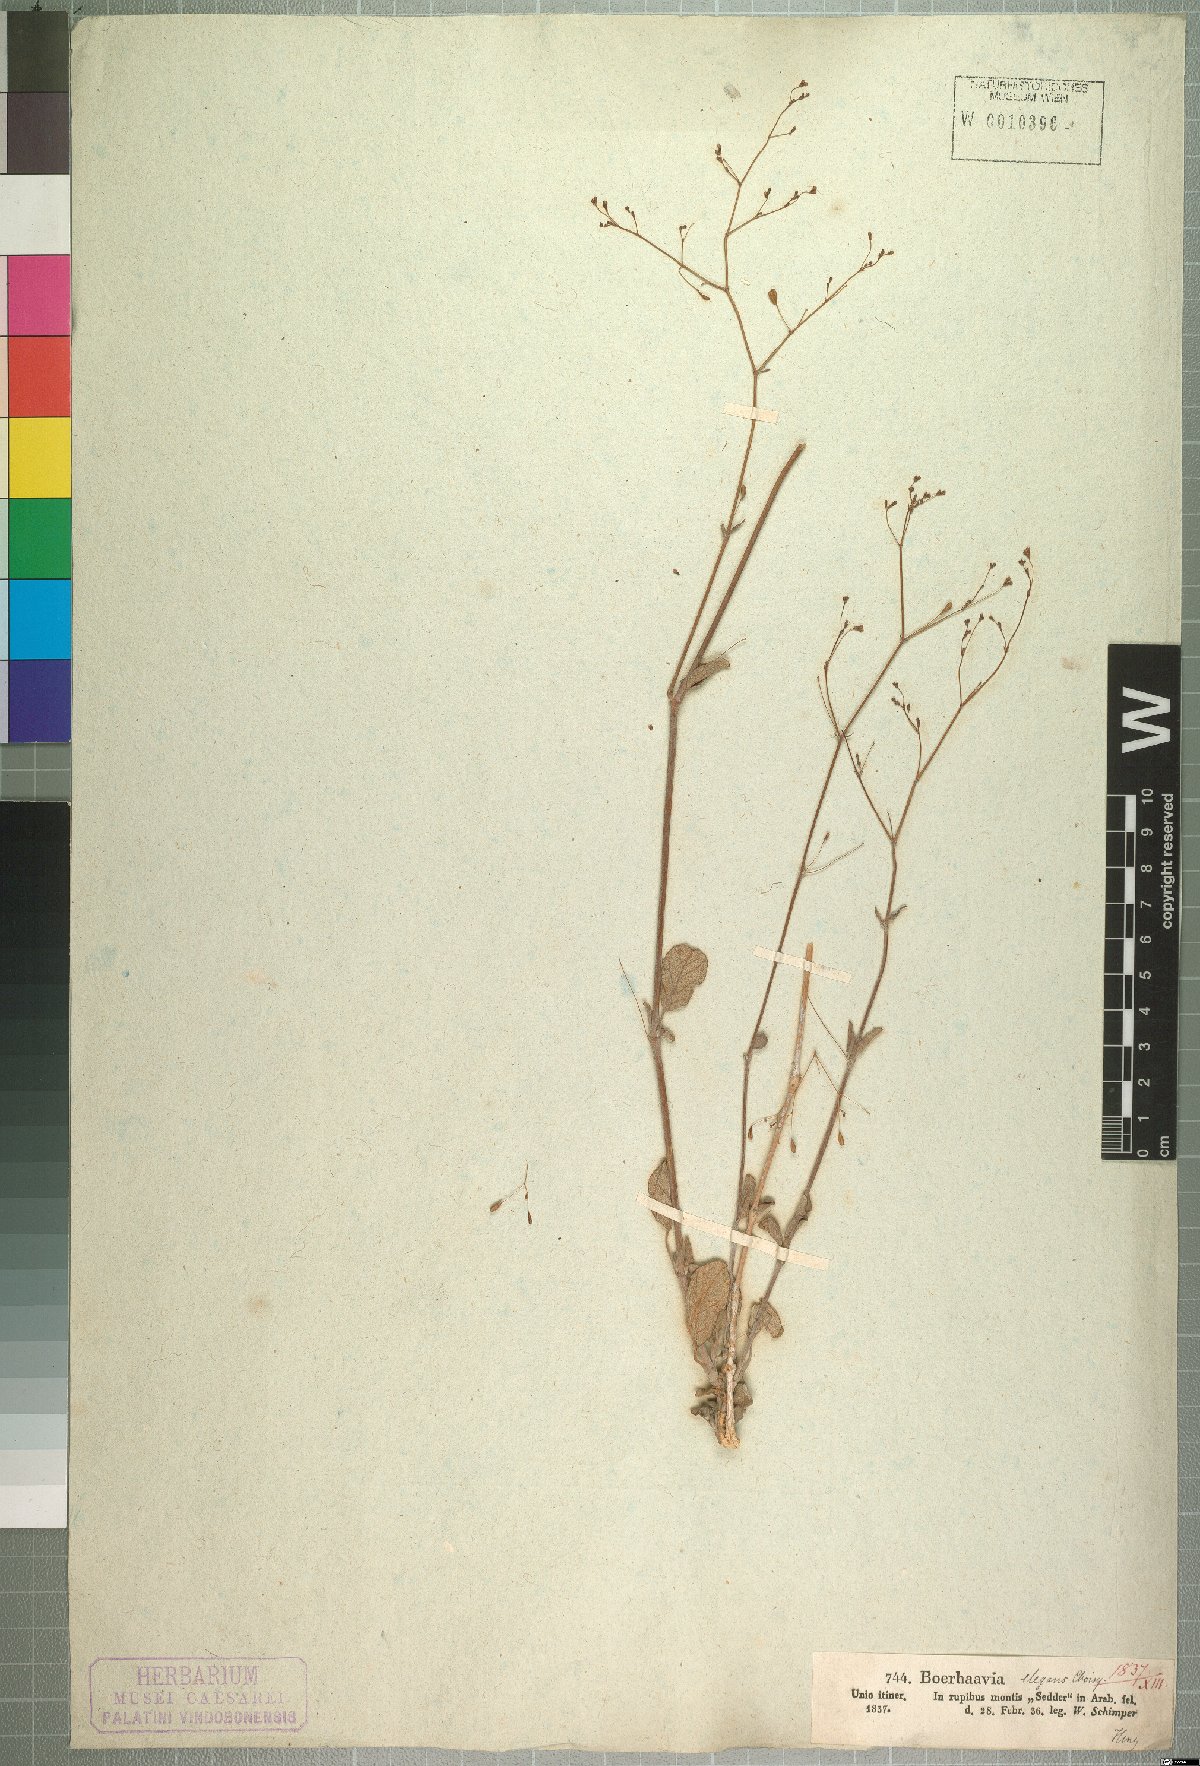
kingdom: Plantae
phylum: Tracheophyta
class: Magnoliopsida
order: Caryophyllales
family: Nyctaginaceae
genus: Boerhavia
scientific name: Boerhavia elegans
